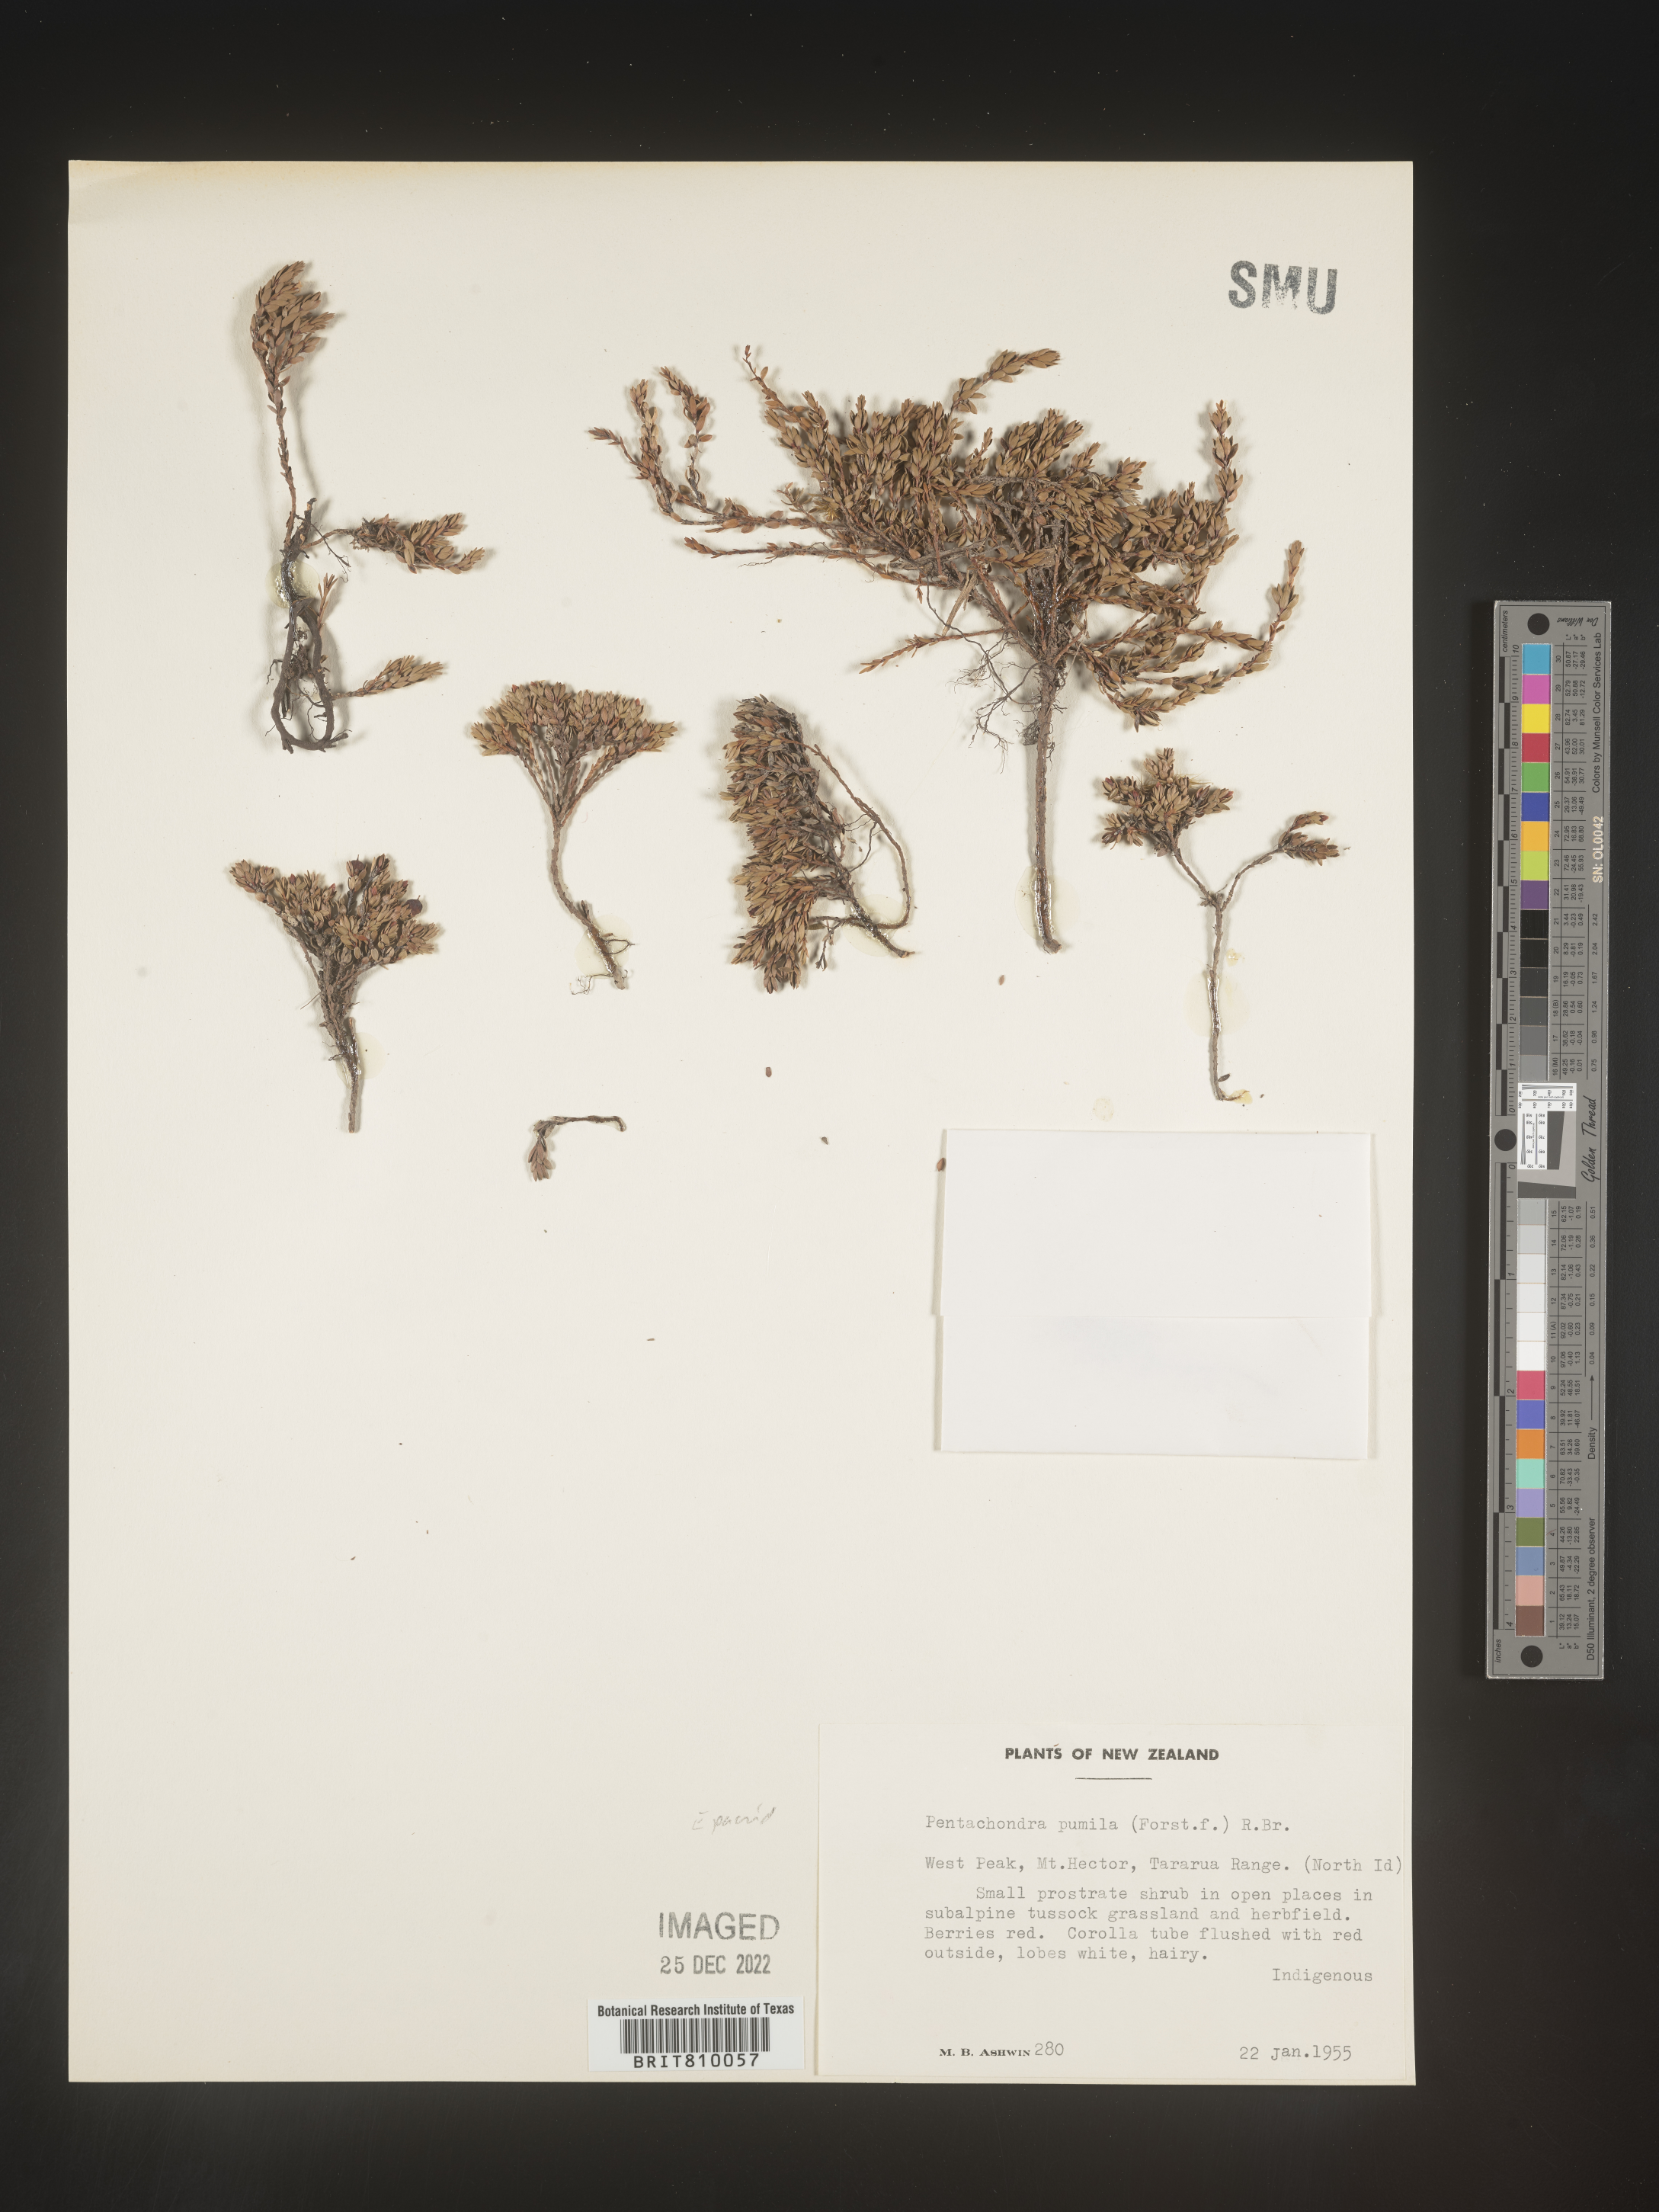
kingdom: Plantae
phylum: Tracheophyta
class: Magnoliopsida
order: Ericales
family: Ericaceae
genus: Pentachondra
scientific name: Pentachondra
